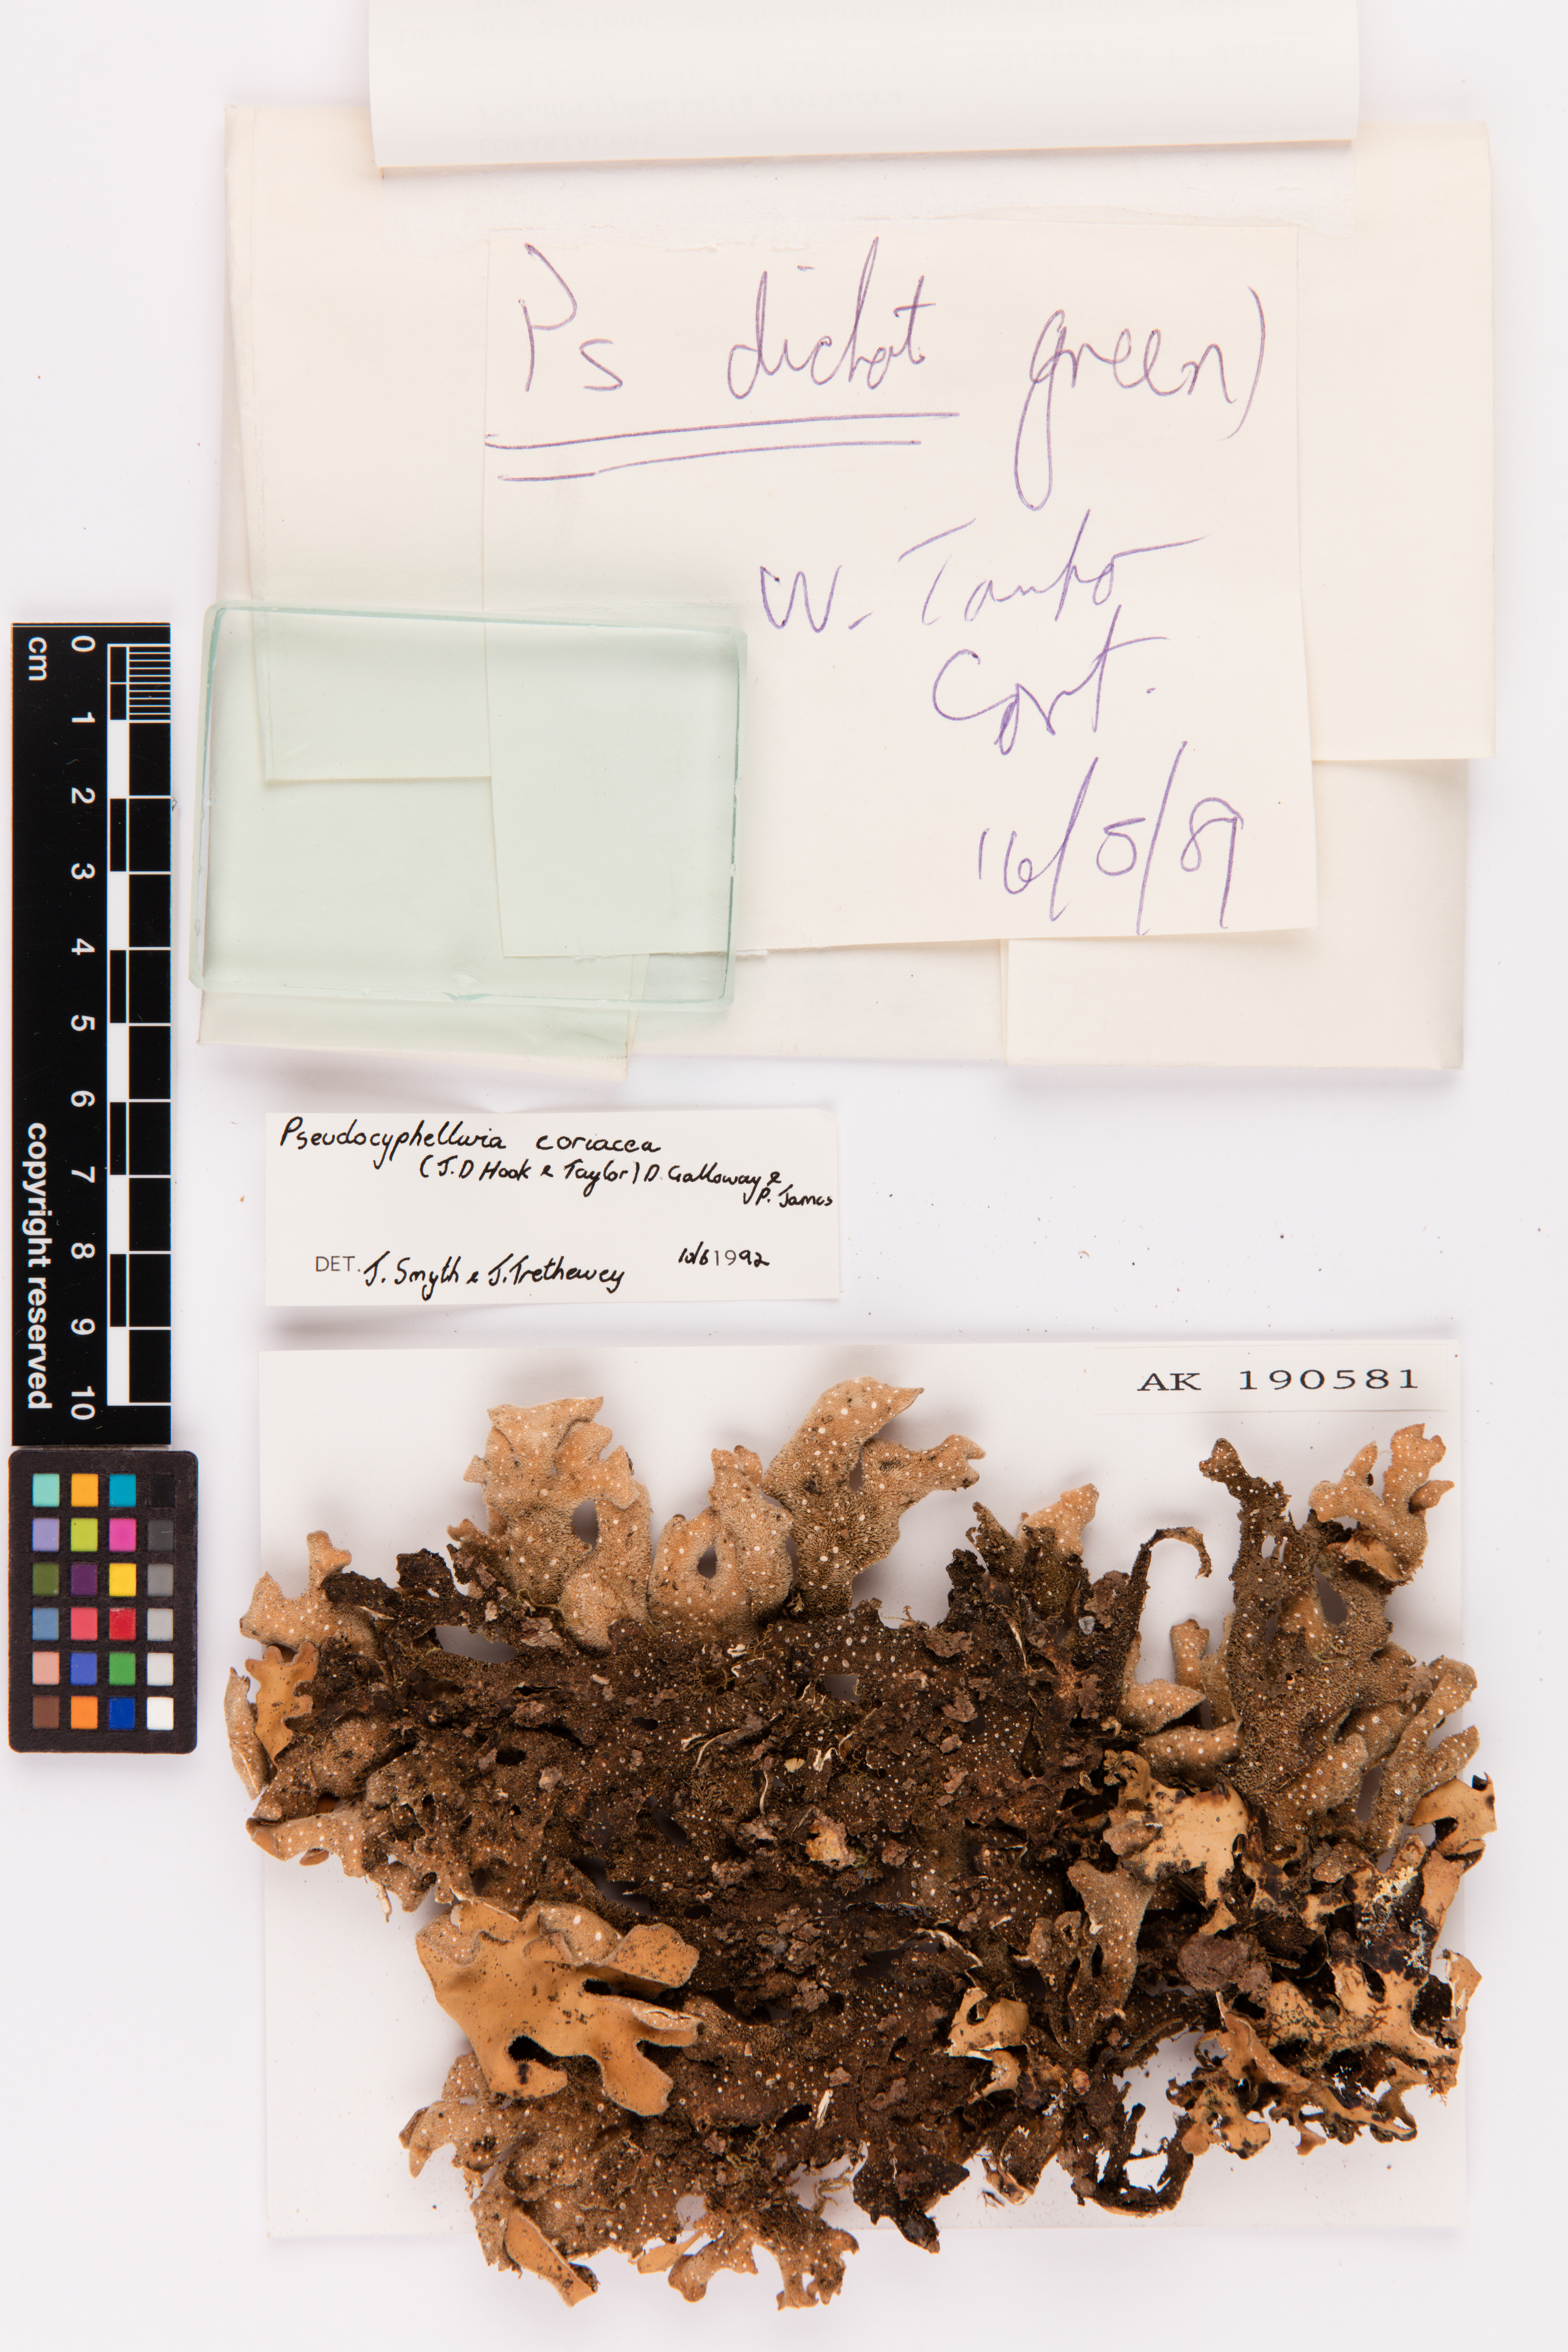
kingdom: Fungi
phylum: Ascomycota
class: Lecanoromycetes
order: Peltigerales
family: Lobariaceae
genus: Pseudocyphellaria
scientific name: Pseudocyphellaria coriacea
